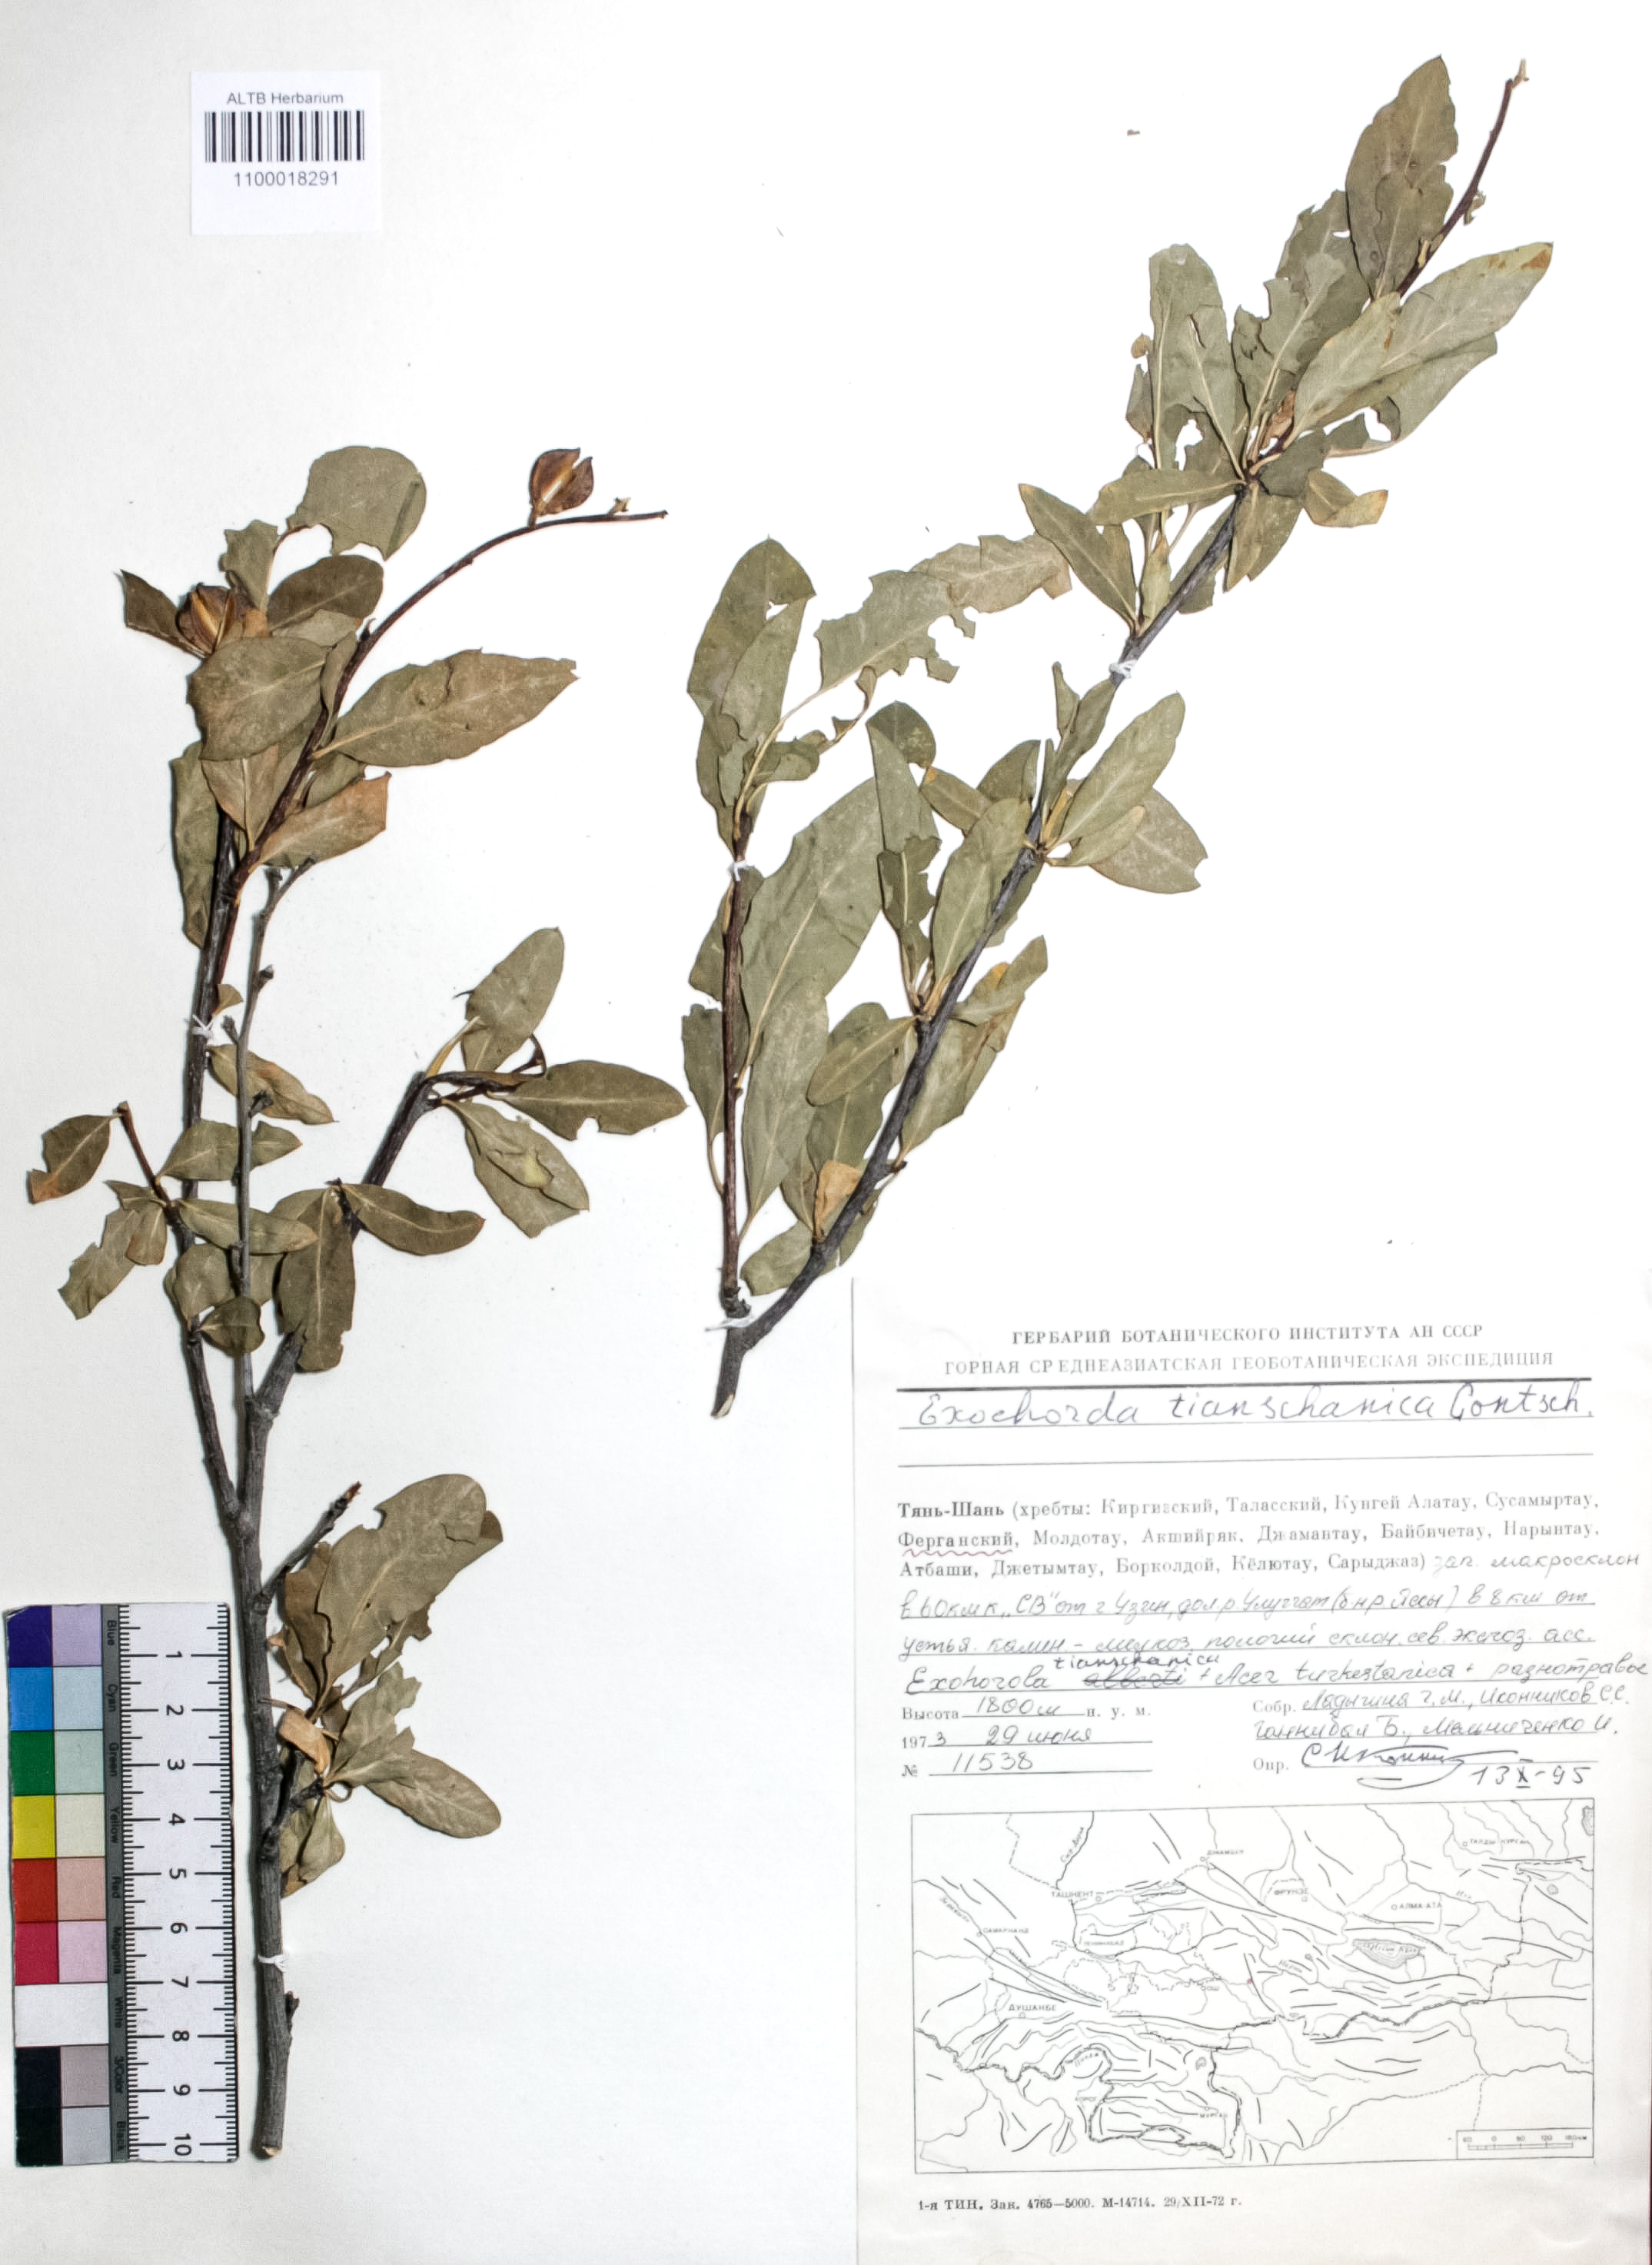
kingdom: Plantae
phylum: Tracheophyta
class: Magnoliopsida
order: Rosales
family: Rosaceae
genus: Exochorda
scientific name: Exochorda racemosa
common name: Common pearlbrush
